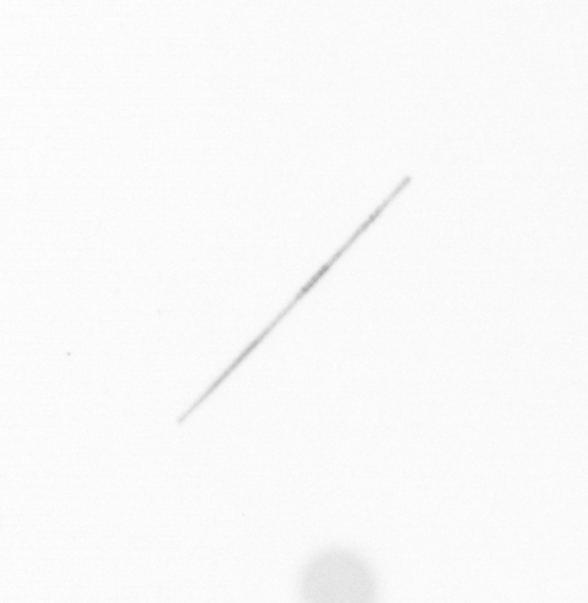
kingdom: Chromista
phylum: Ochrophyta
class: Bacillariophyceae
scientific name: Bacillariophyceae
